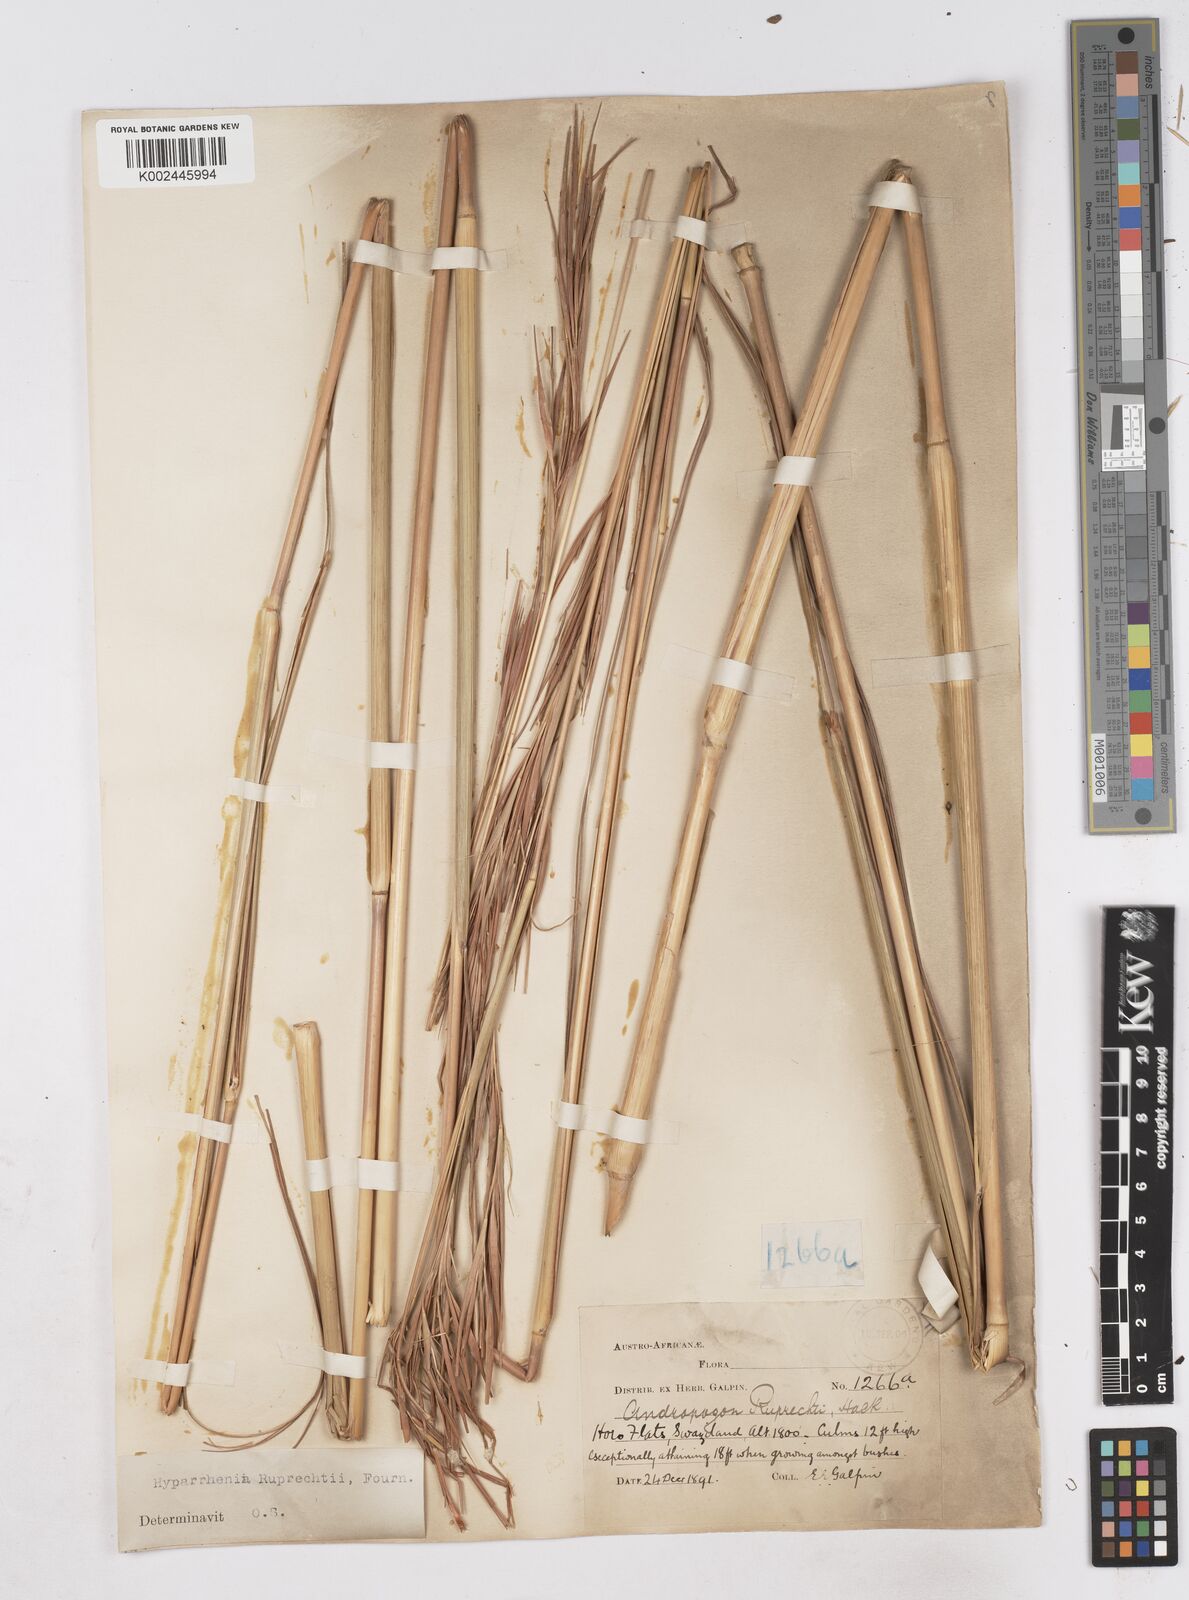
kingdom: Plantae
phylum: Tracheophyta
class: Liliopsida
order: Poales
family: Poaceae
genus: Hyperthelia
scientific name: Hyperthelia dissoluta
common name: Yellow thatching grass
